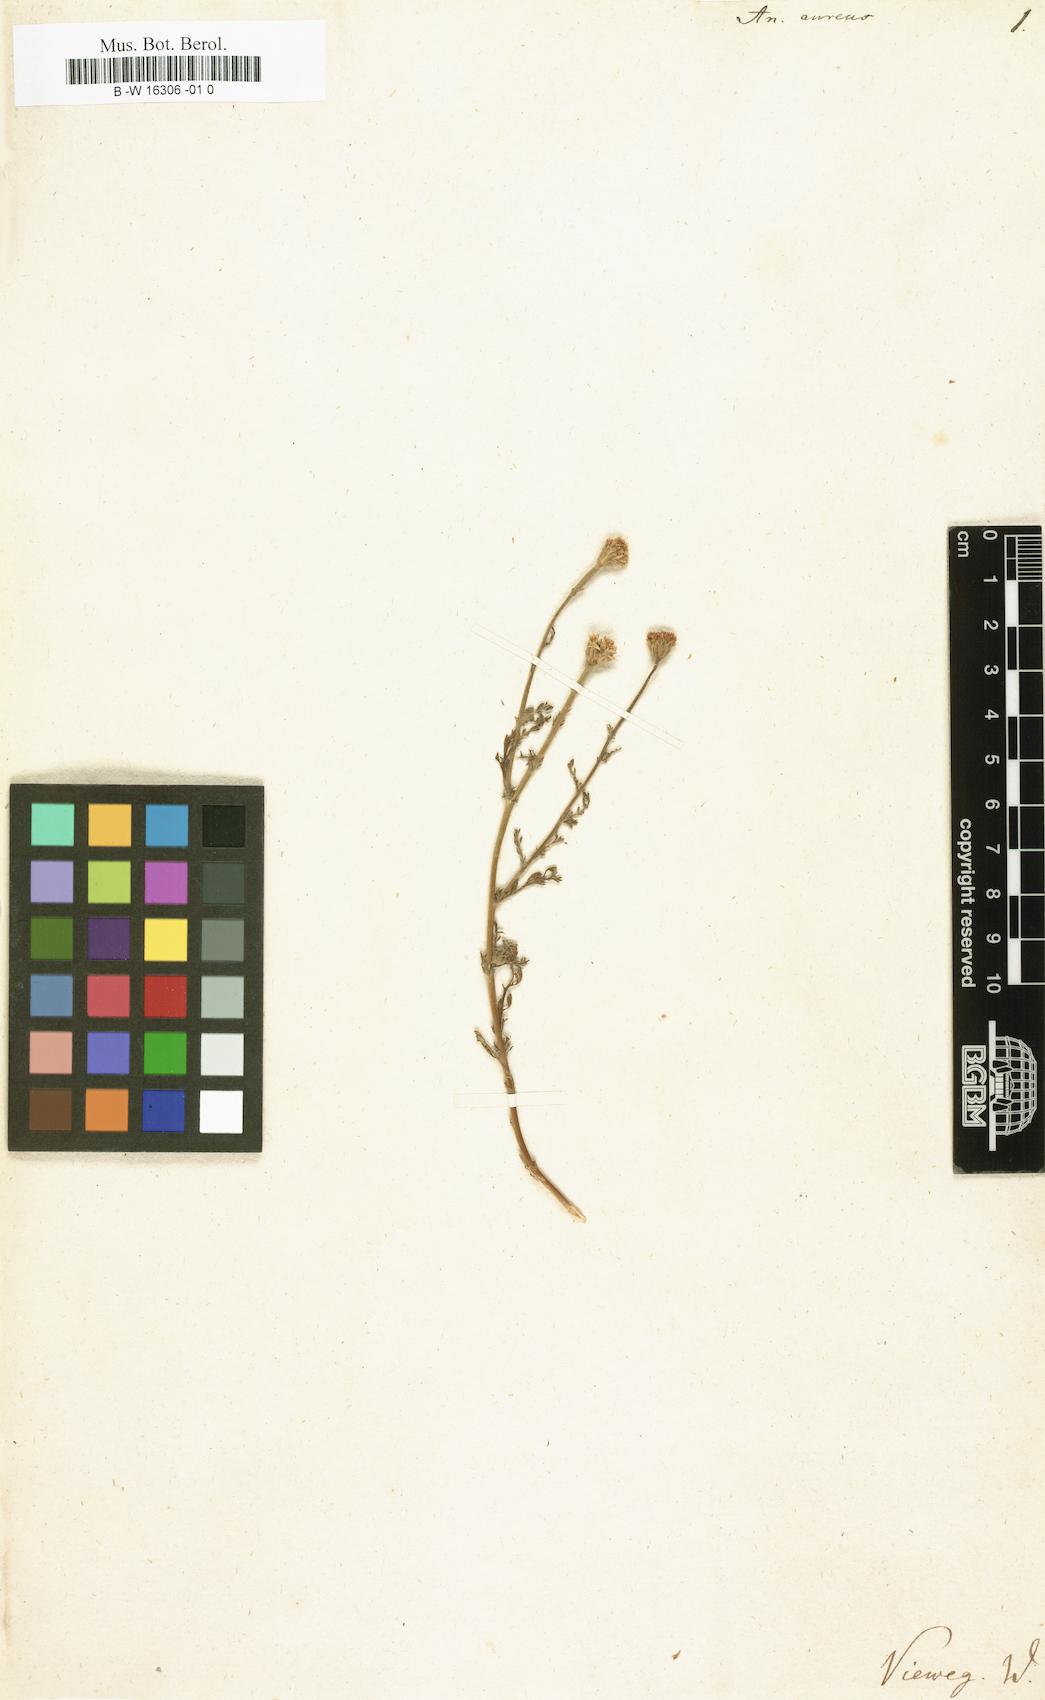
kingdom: Plantae
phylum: Tracheophyta
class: Magnoliopsida
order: Asterales
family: Asteraceae
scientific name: Asteraceae
